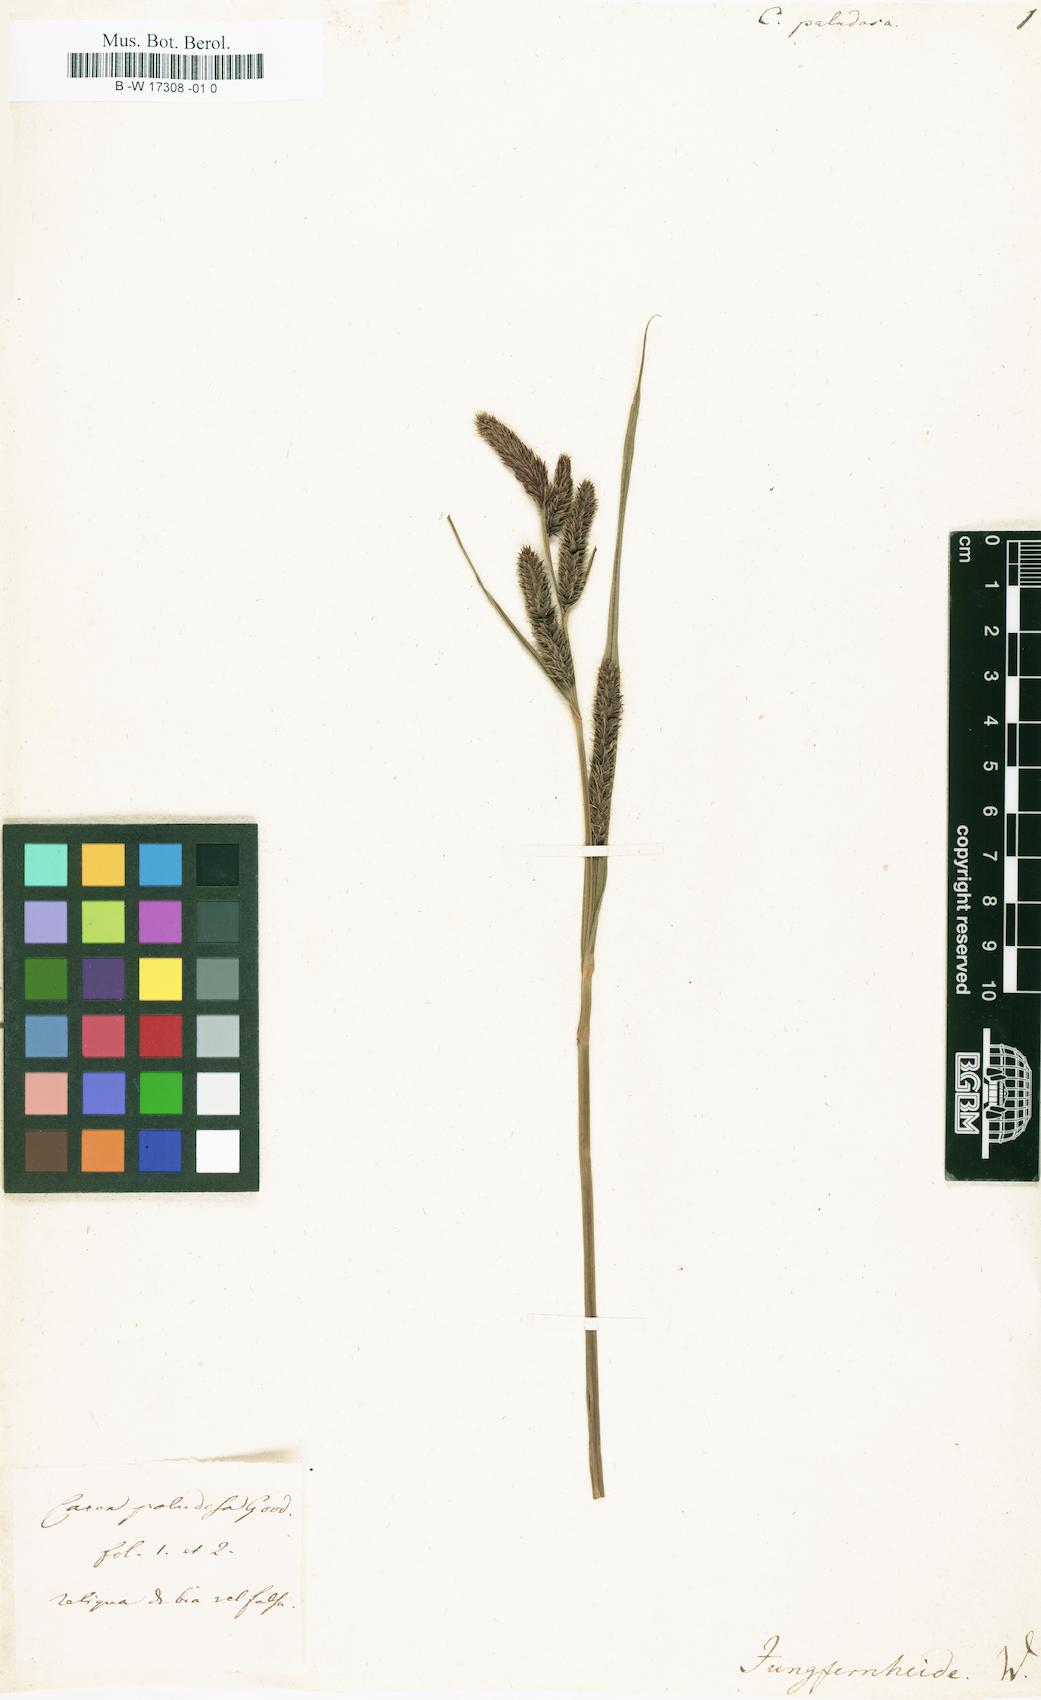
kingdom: Plantae
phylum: Tracheophyta
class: Liliopsida
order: Poales
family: Cyperaceae
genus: Carex
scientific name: Carex acutiformis
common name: Lesser pond-sedge
